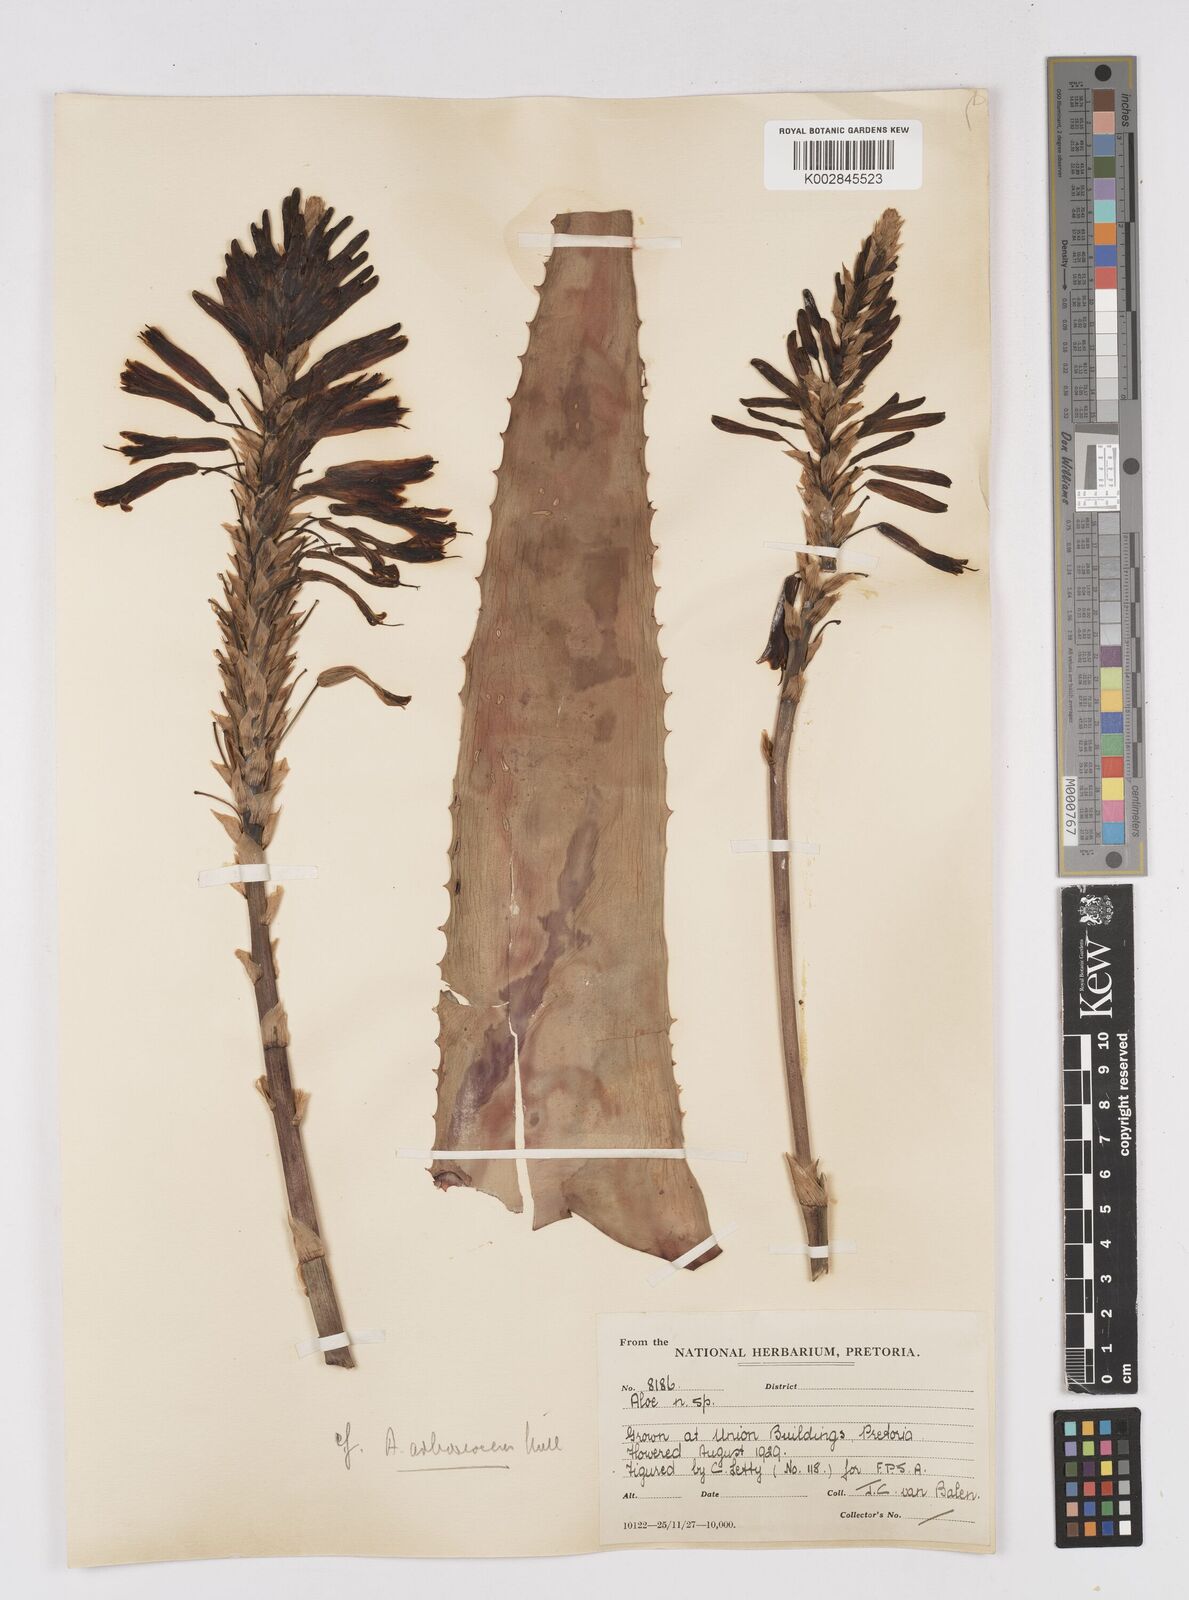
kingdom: Plantae
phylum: Tracheophyta
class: Liliopsida
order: Asparagales
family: Asphodelaceae
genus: Aloe
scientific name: Aloe arborescens
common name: Candelabra aloe
